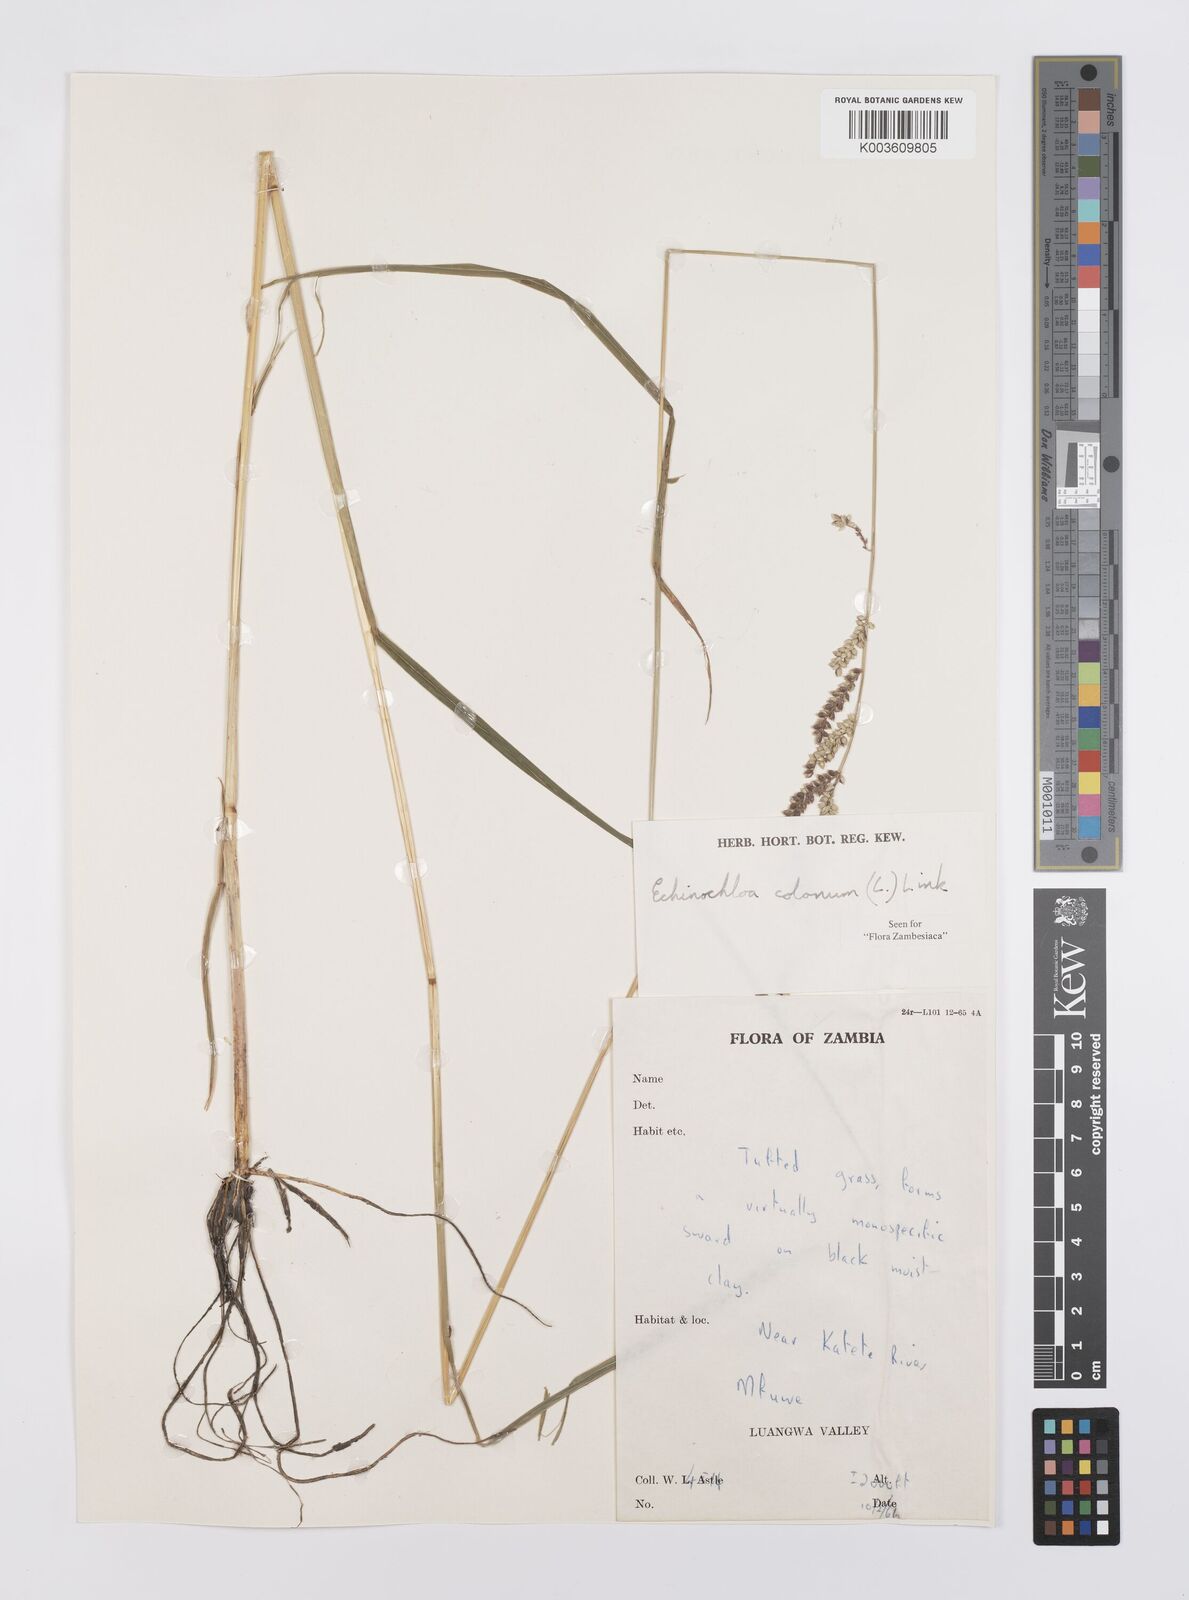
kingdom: Plantae
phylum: Tracheophyta
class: Liliopsida
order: Poales
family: Poaceae
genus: Echinochloa
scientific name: Echinochloa colonum
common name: Jungle rice
